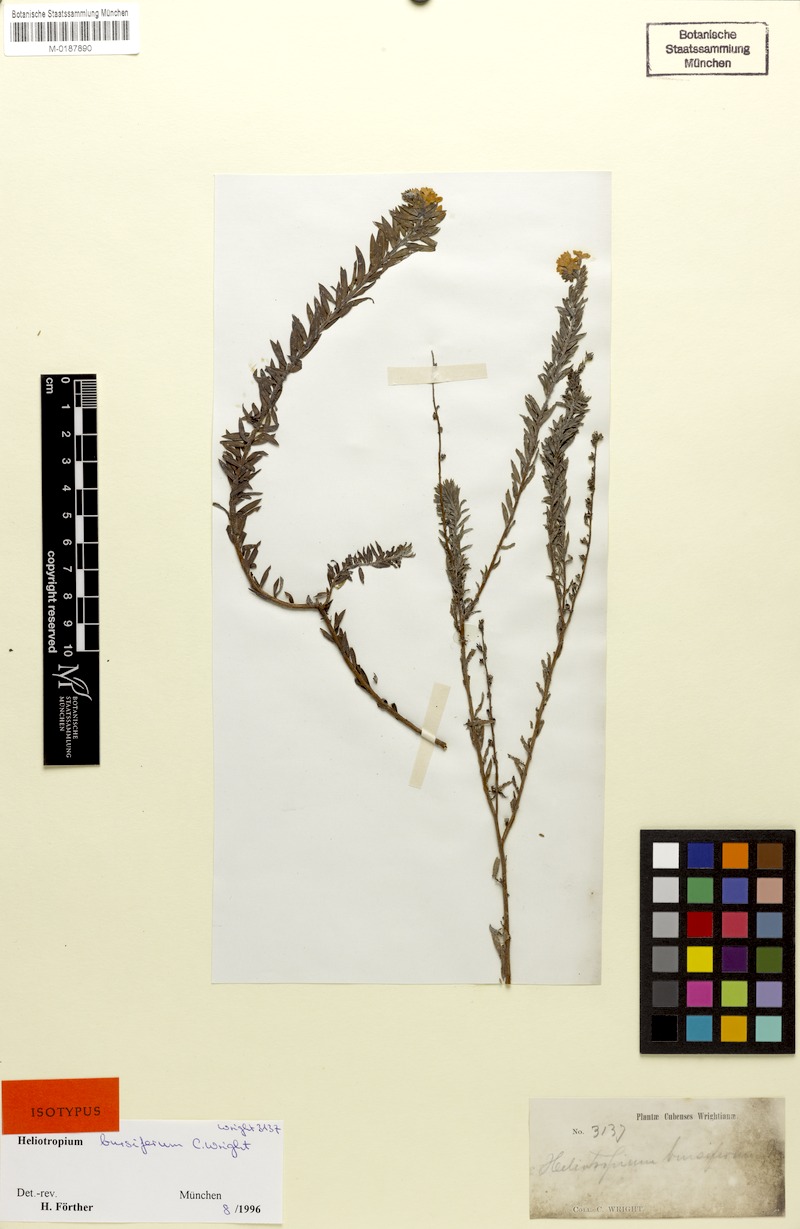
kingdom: Plantae
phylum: Tracheophyta
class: Magnoliopsida
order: Boraginales
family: Heliotropiaceae
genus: Euploca
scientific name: Euploca bursifera
